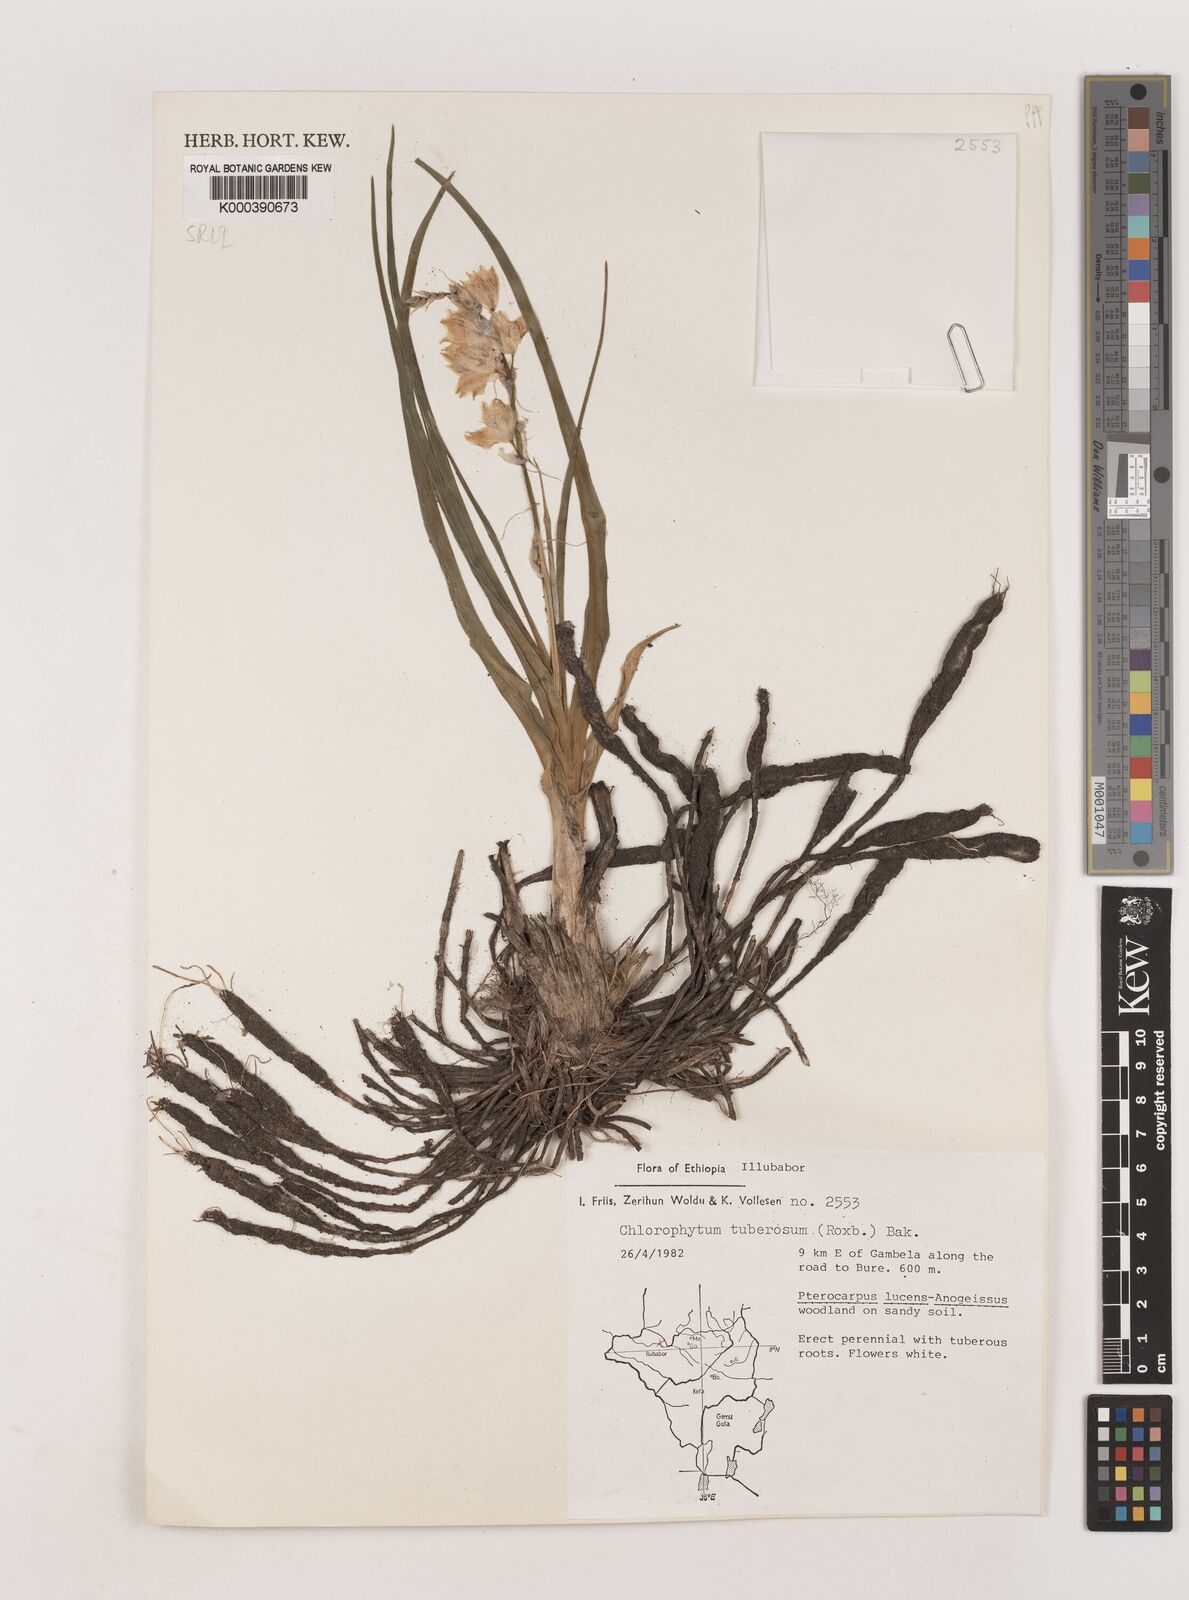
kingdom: Plantae
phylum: Tracheophyta
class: Liliopsida
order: Asparagales
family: Asparagaceae
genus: Chlorophytum
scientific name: Chlorophytum tuberosum
